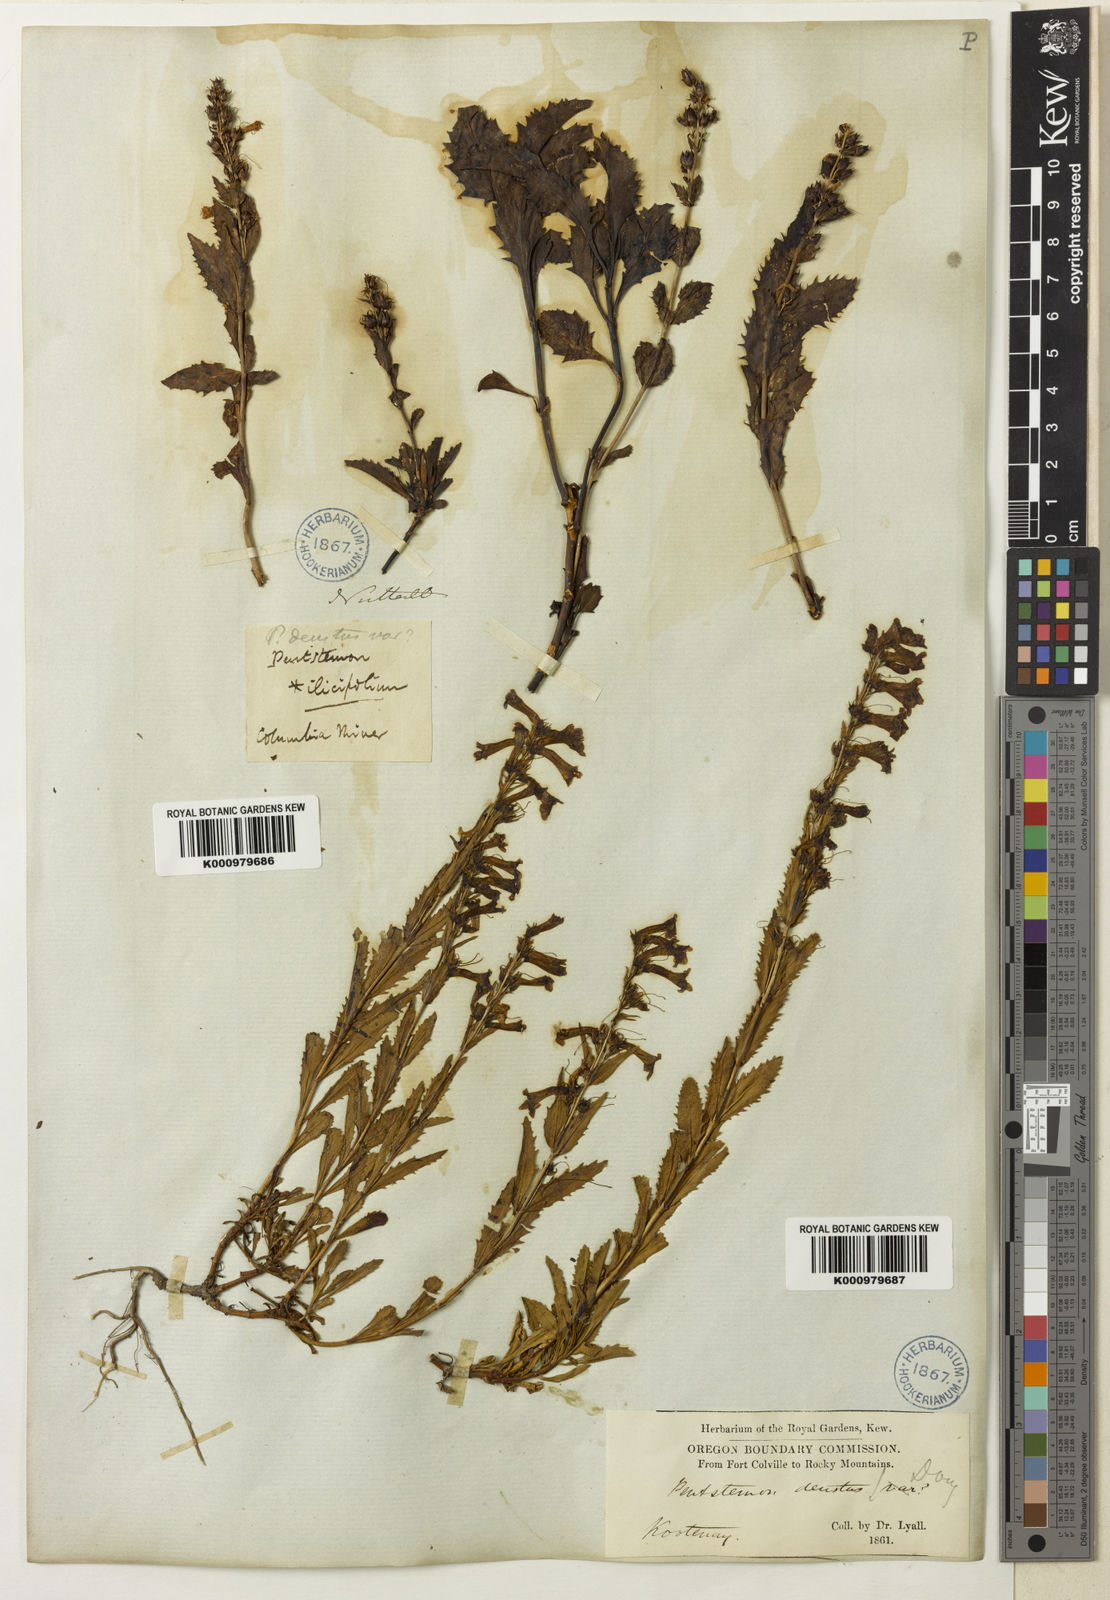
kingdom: Plantae
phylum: Tracheophyta
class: Magnoliopsida
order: Lamiales
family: Plantaginaceae
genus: Penstemon
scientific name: Penstemon
